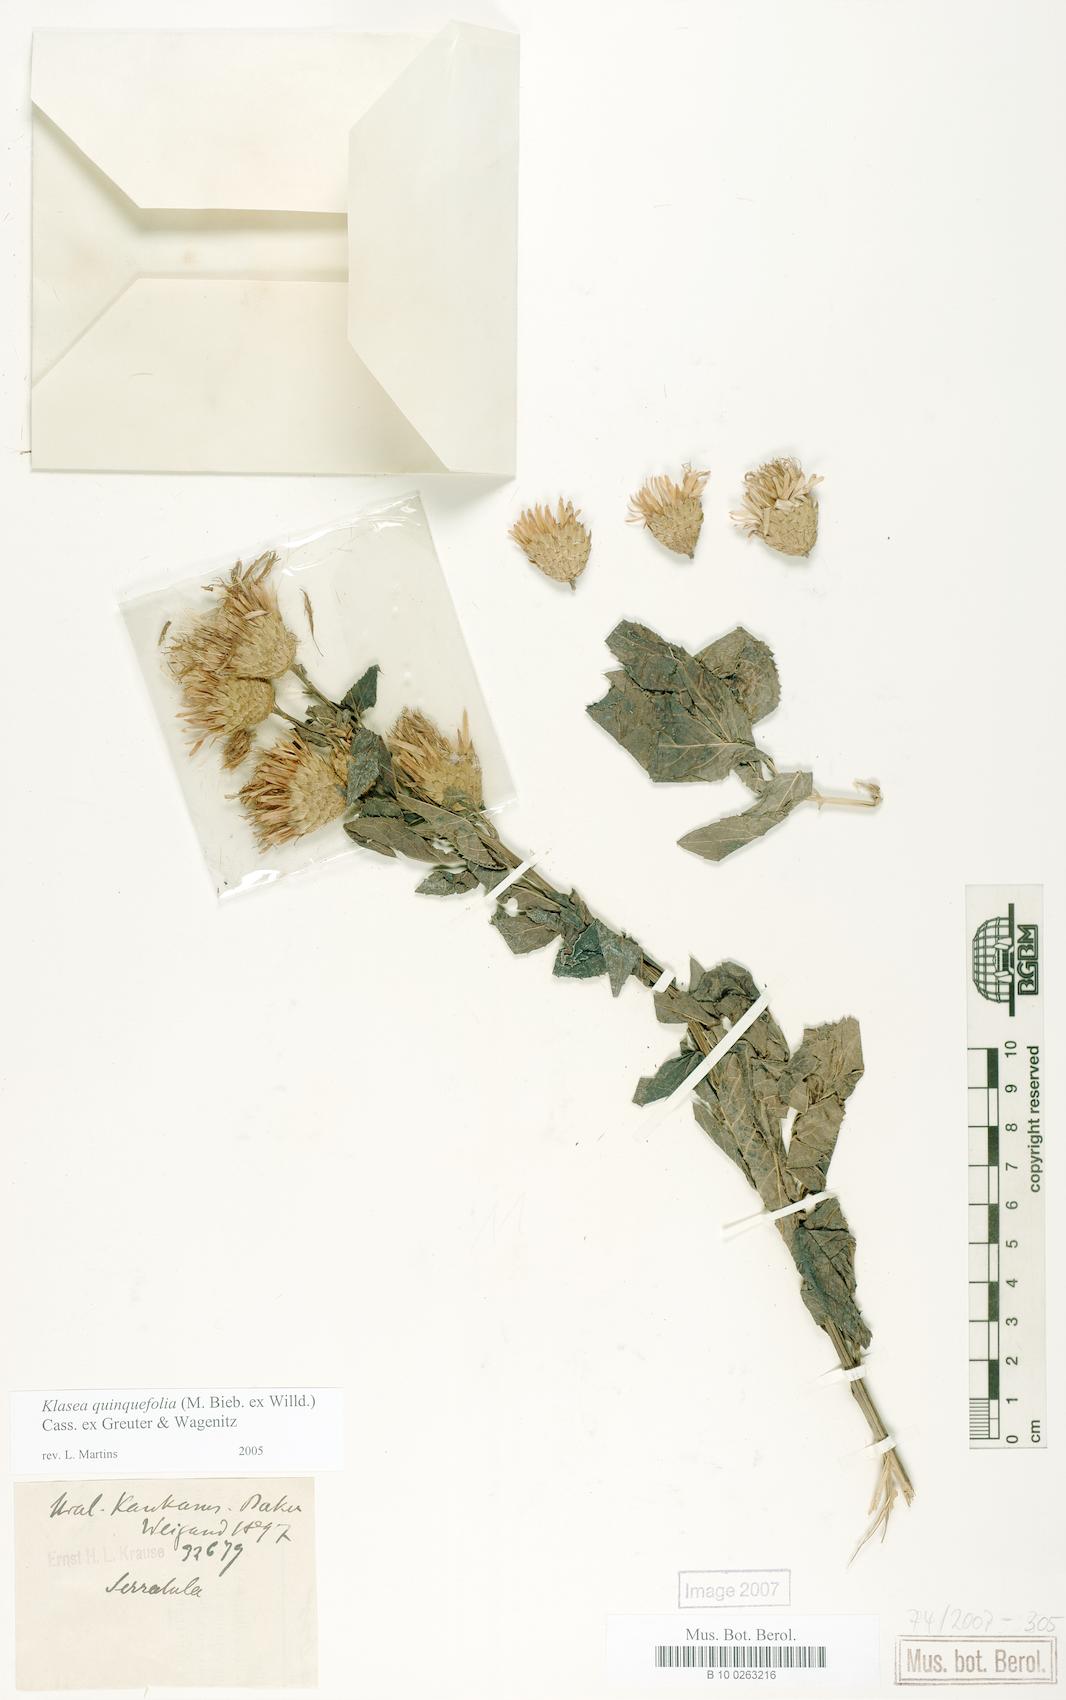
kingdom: Plantae
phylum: Tracheophyta
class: Magnoliopsida
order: Asterales
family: Asteraceae
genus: Klasea
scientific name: Klasea quinquefolia
